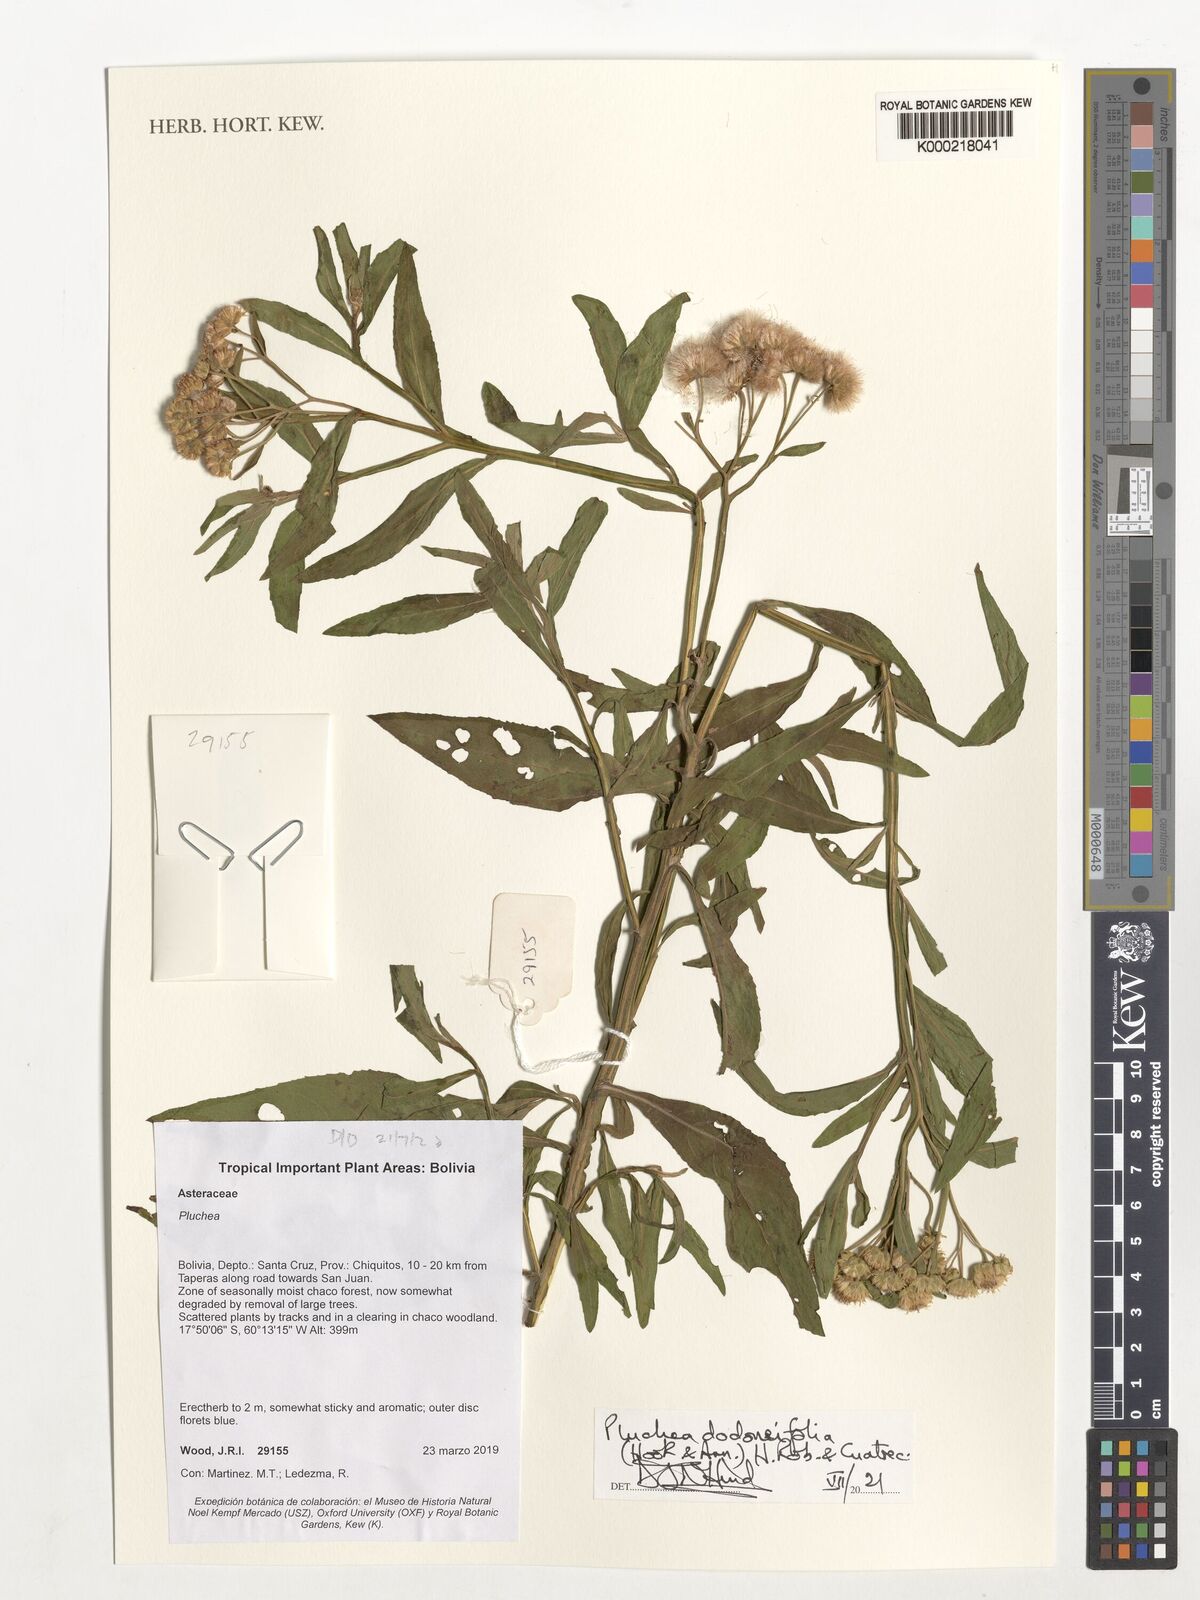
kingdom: Plantae
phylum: Tracheophyta
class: Magnoliopsida
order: Asterales
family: Asteraceae
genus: Tessaria
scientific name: Tessaria dodonaeifolia
